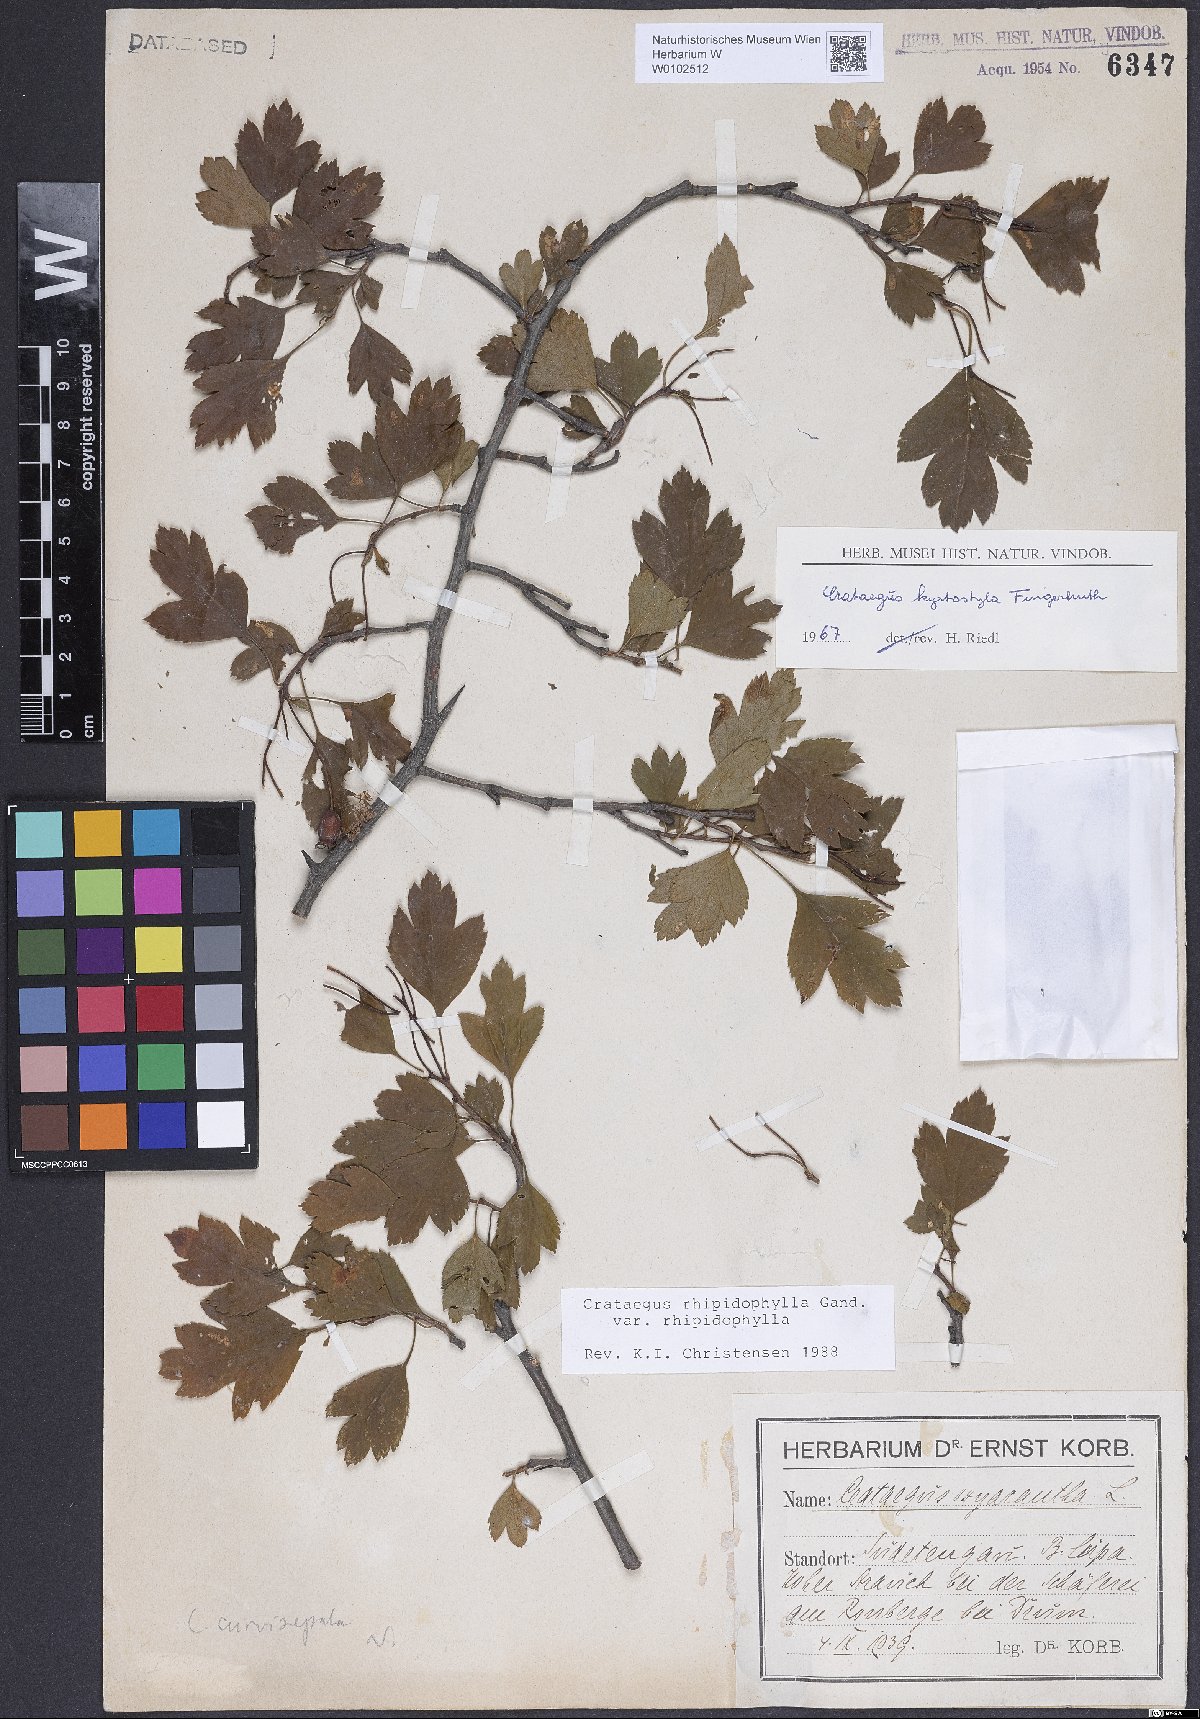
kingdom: Plantae
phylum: Tracheophyta
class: Magnoliopsida
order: Rosales
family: Rosaceae
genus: Crataegus
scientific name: Crataegus rhipidophylla
